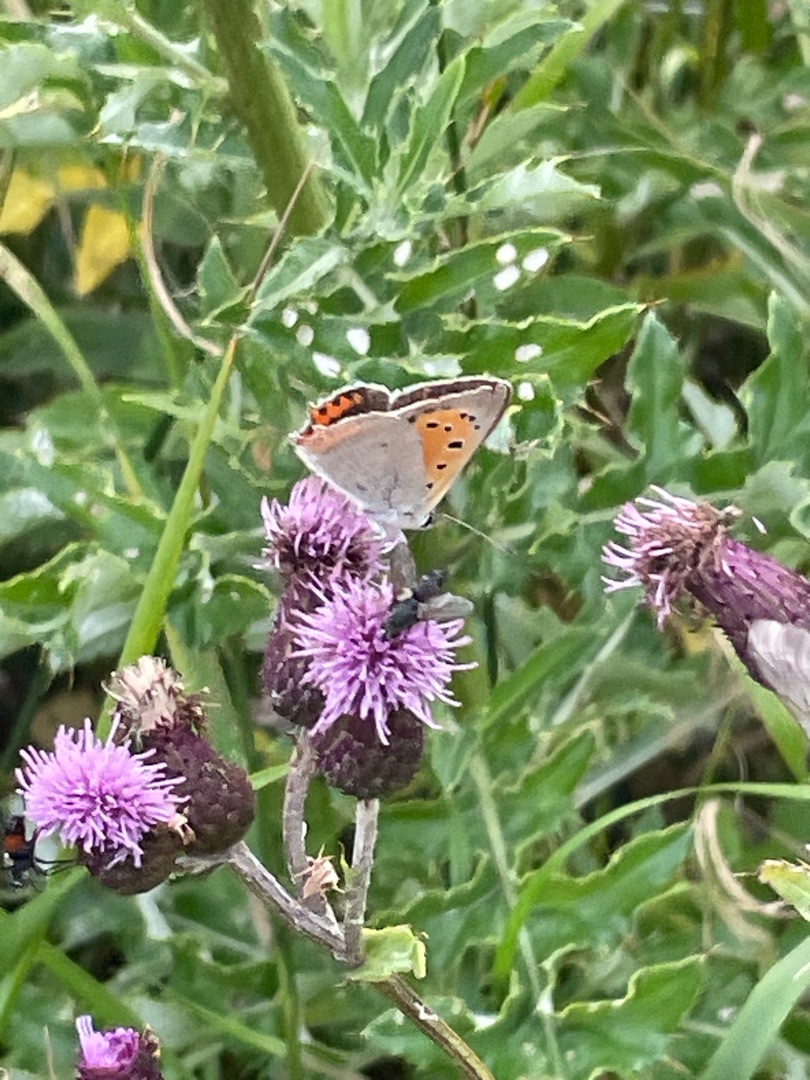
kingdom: Animalia
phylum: Arthropoda
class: Insecta
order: Lepidoptera
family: Lycaenidae
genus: Lycaena
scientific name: Lycaena phlaeas
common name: Lille ildfugl
